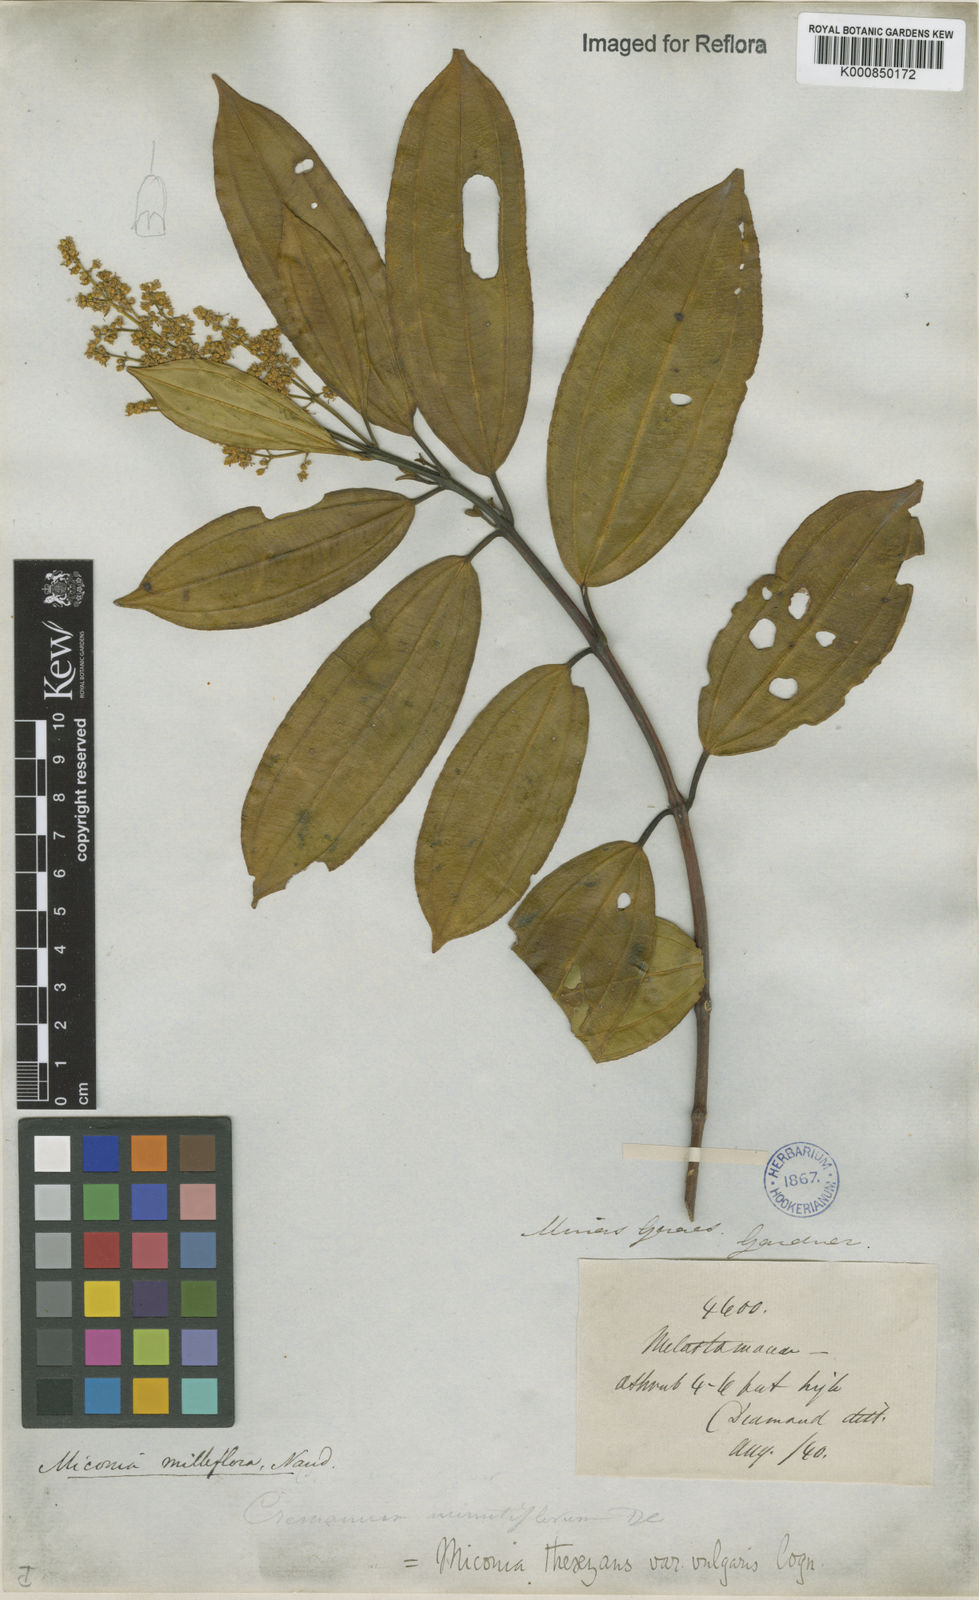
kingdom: Plantae
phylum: Tracheophyta
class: Magnoliopsida
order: Myrtales
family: Melastomataceae
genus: Miconia
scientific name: Miconia
